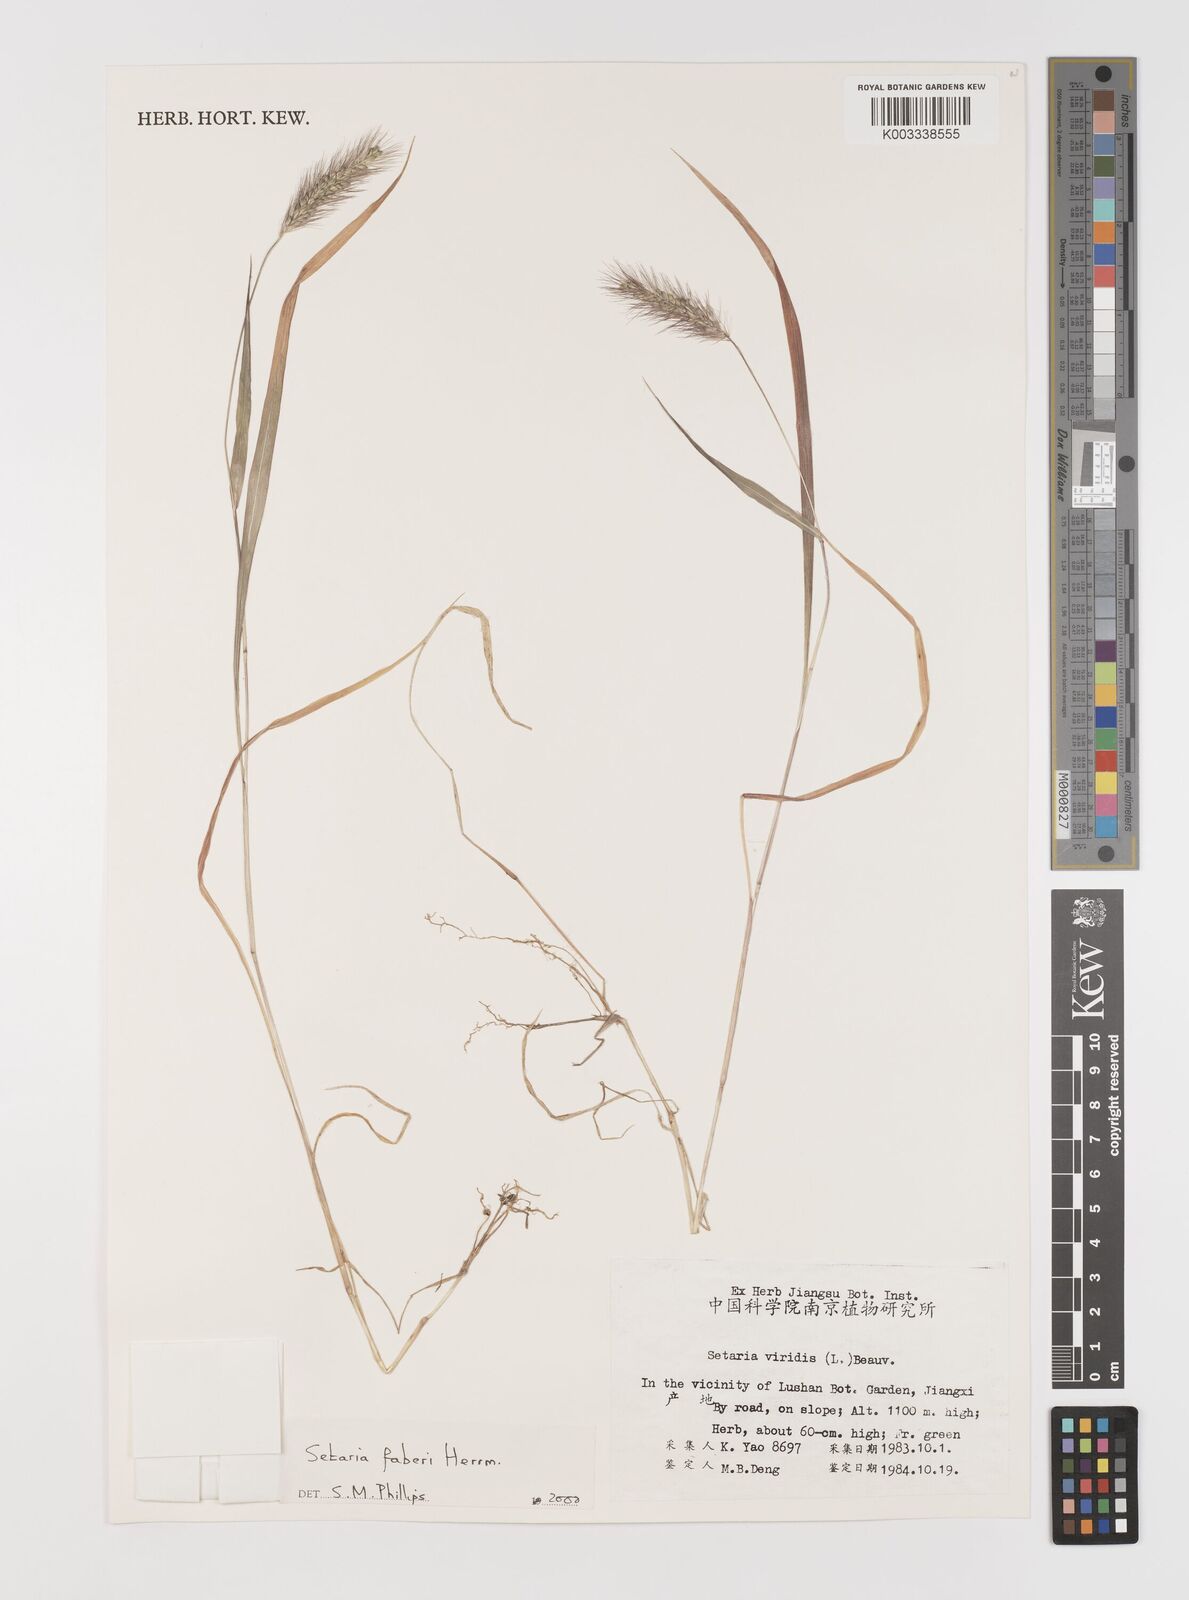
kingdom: Plantae
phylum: Tracheophyta
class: Liliopsida
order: Poales
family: Poaceae
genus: Setaria
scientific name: Setaria faberi
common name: Nodding bristle-grass
